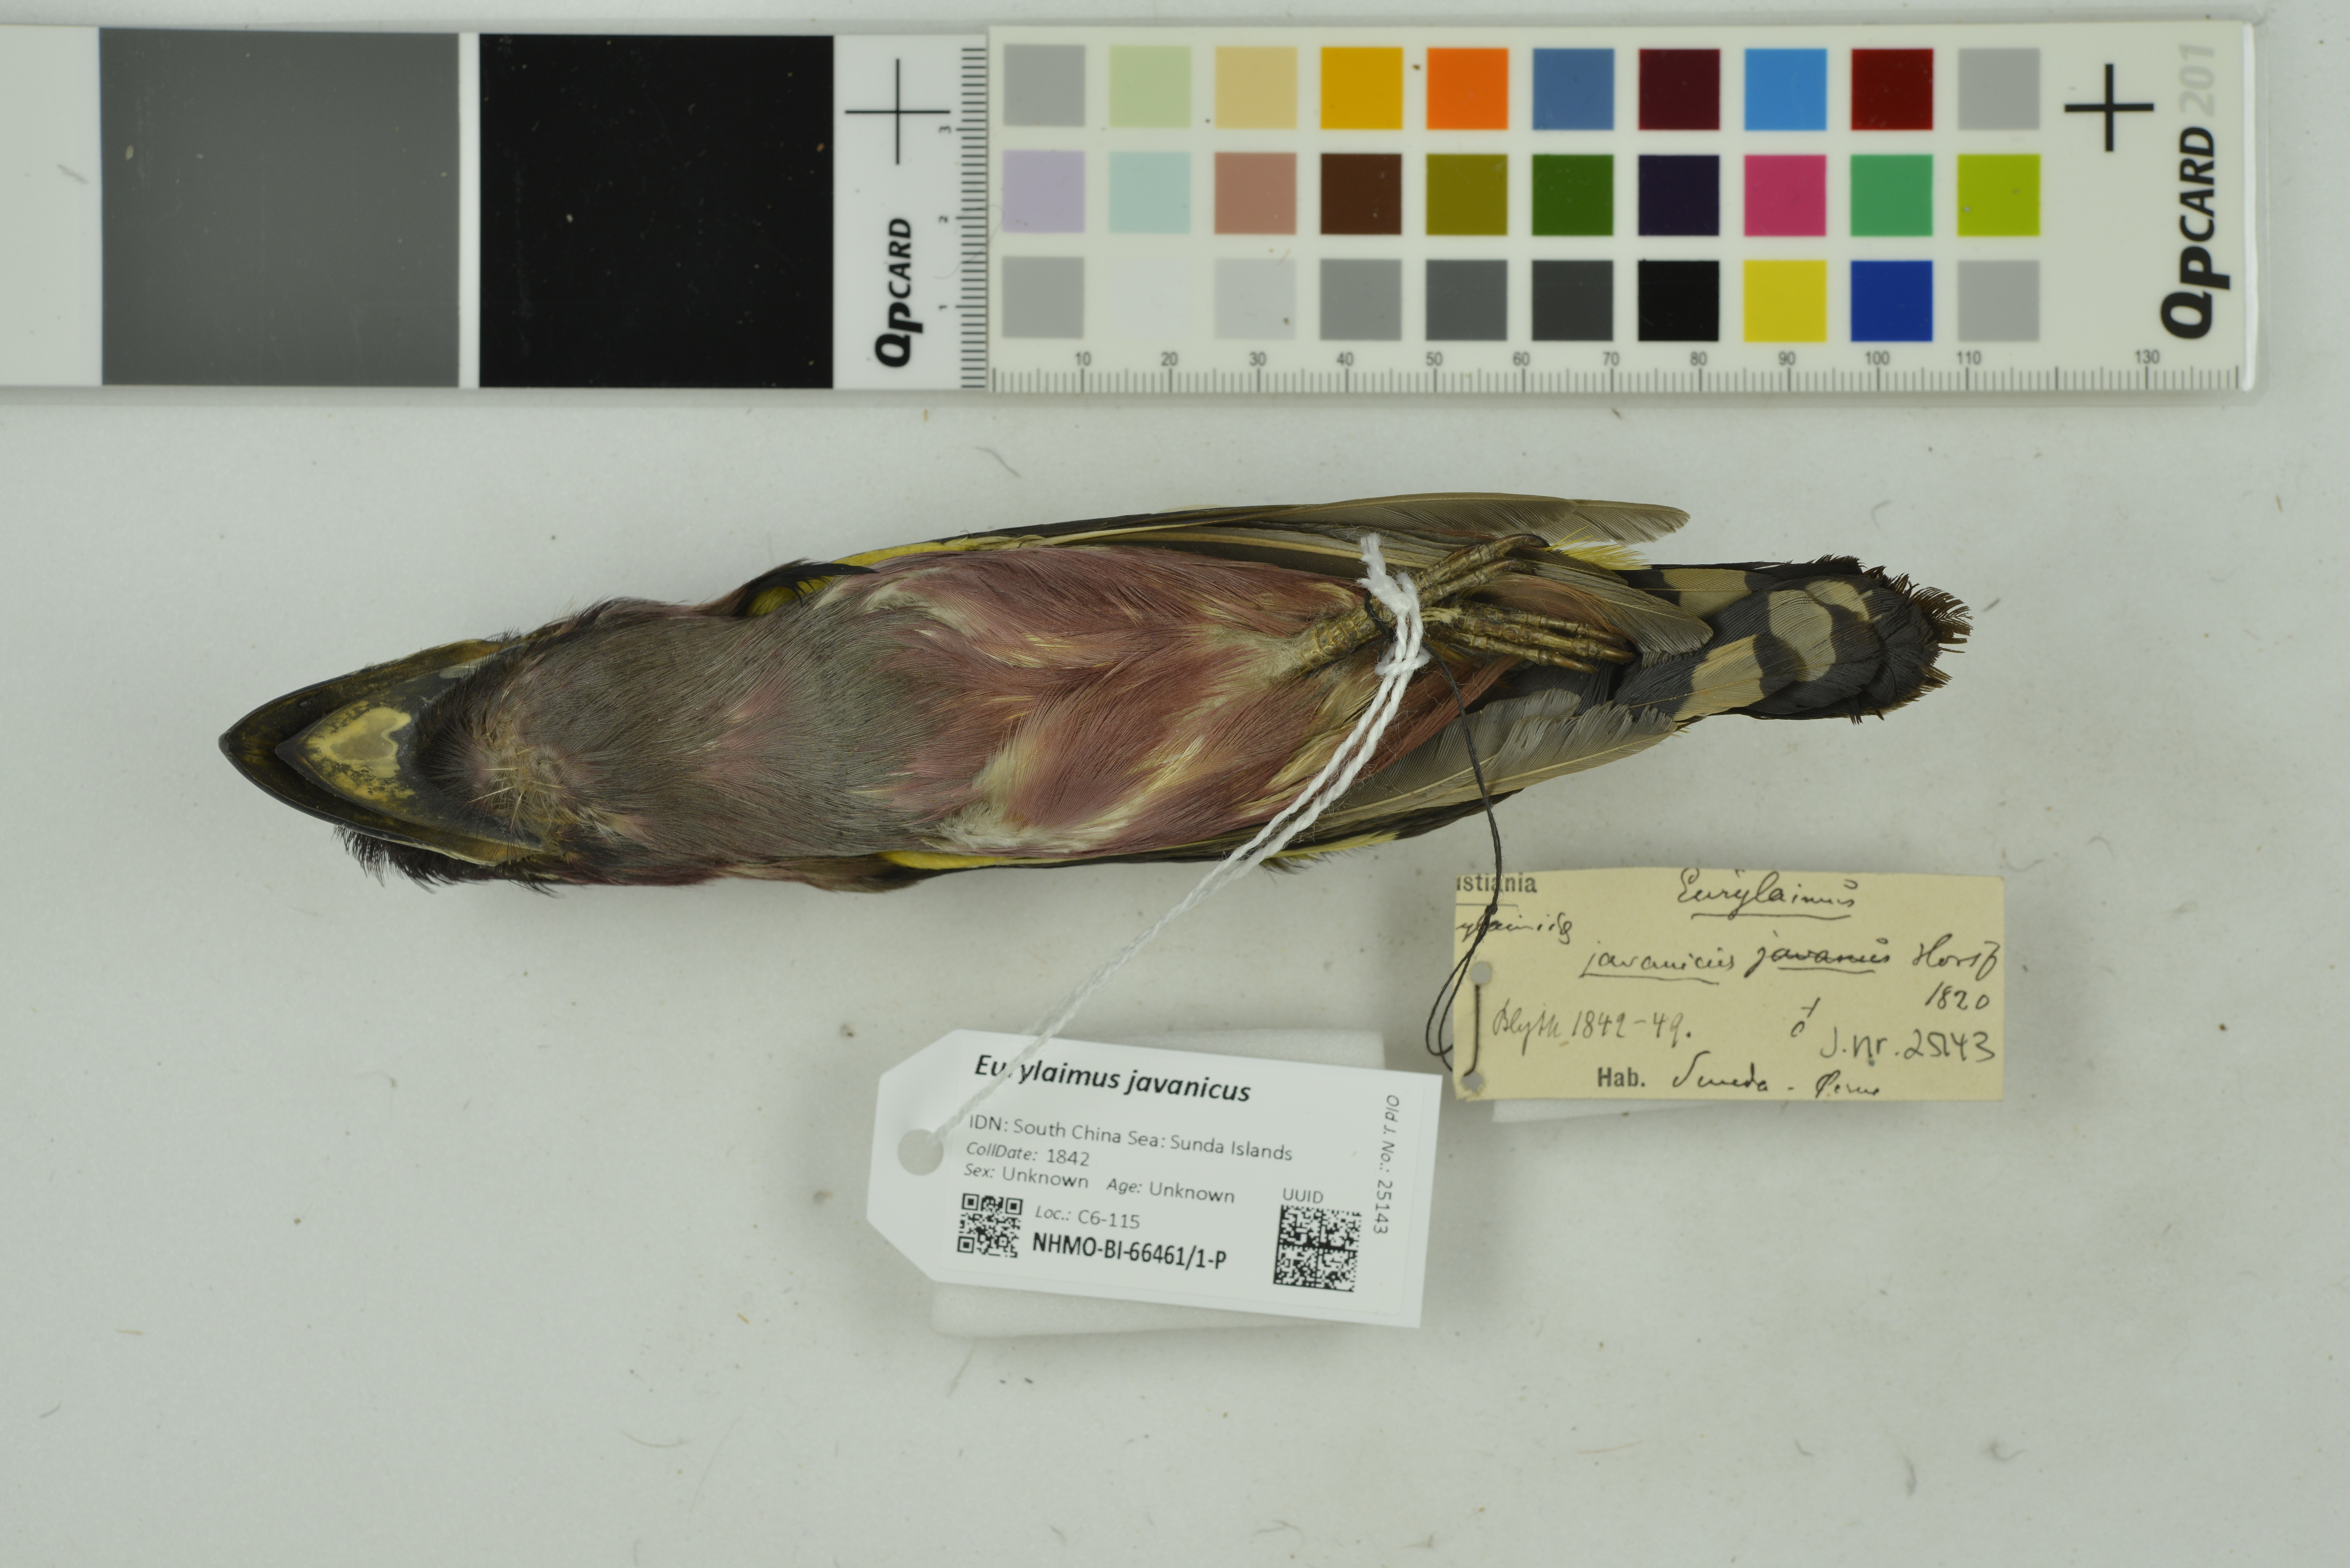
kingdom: Animalia
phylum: Chordata
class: Aves
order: Passeriformes
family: Eurylaimidae
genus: Eurylaimus
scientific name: Eurylaimus javanicus
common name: Banded broadbill
